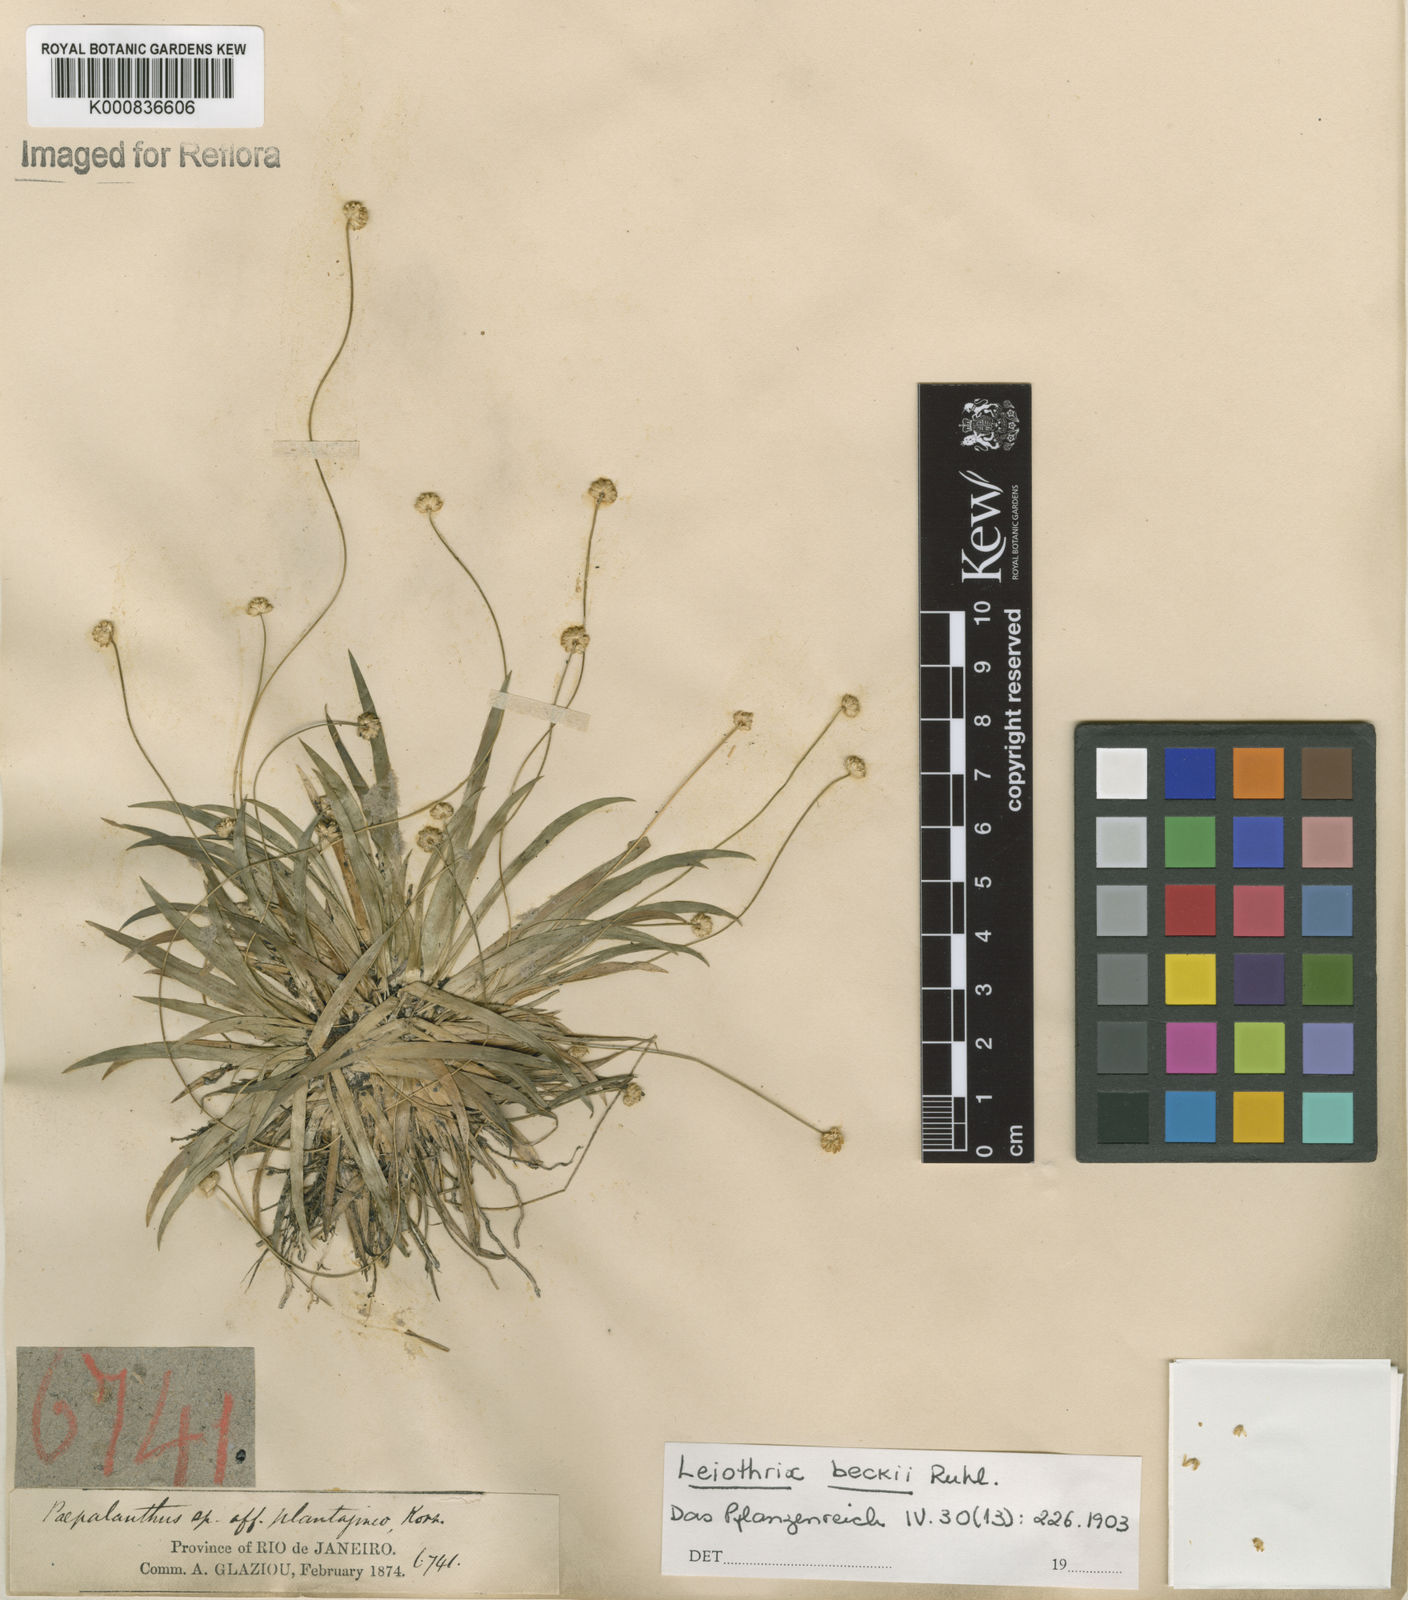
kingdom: Plantae
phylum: Tracheophyta
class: Liliopsida
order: Poales
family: Eriocaulaceae
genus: Leiothrix
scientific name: Leiothrix beckii
